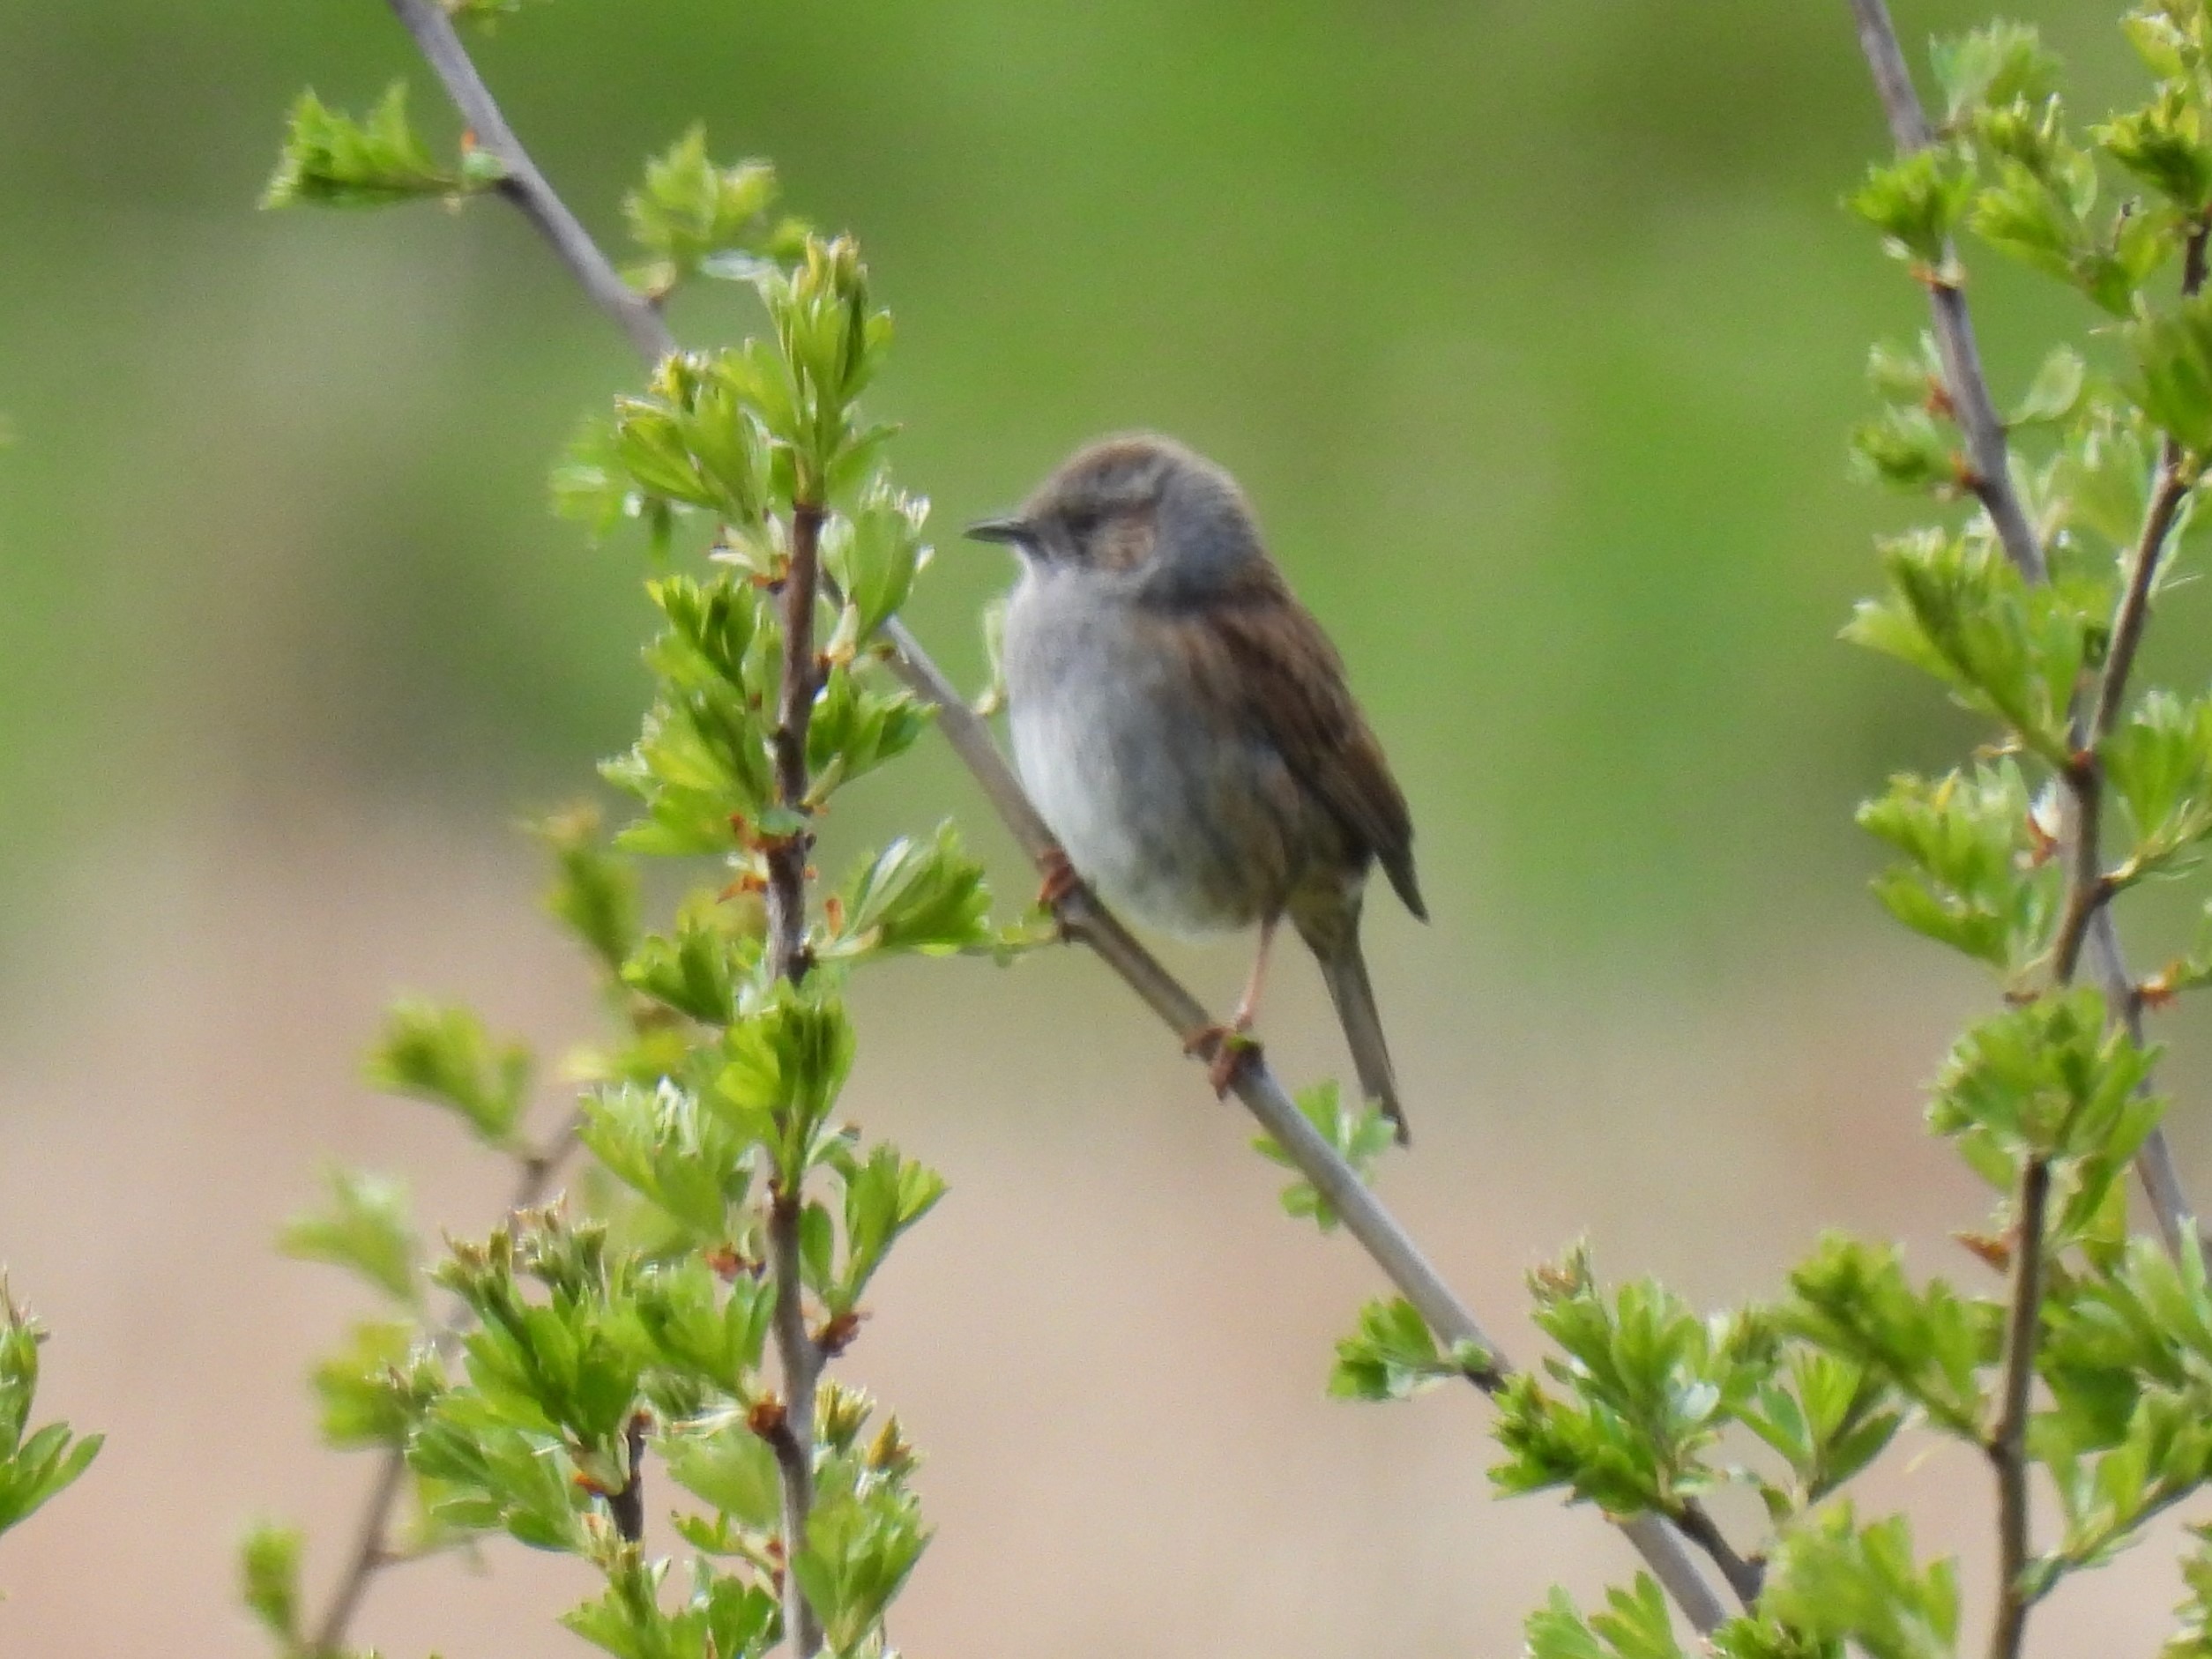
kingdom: Animalia
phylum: Chordata
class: Aves
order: Passeriformes
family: Prunellidae
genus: Prunella
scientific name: Prunella modularis
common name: Jernspurv
